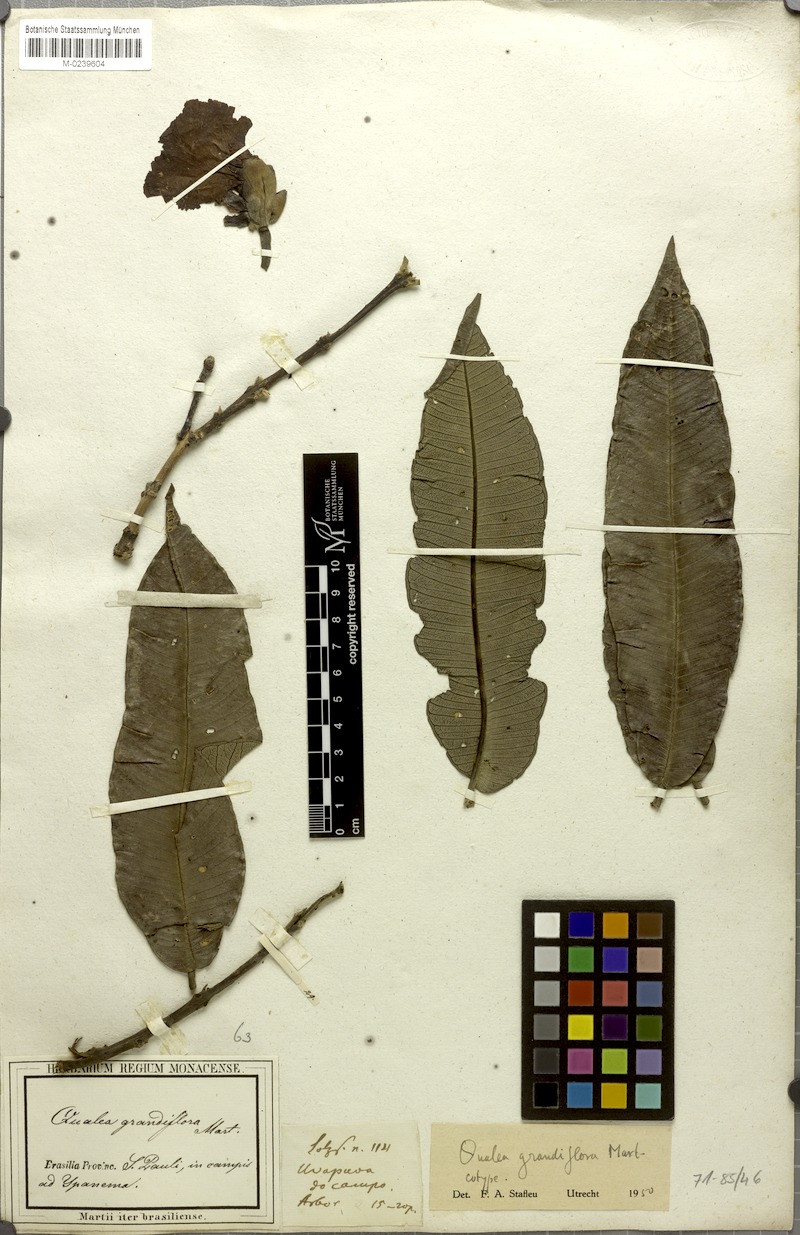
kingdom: Plantae
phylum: Tracheophyta
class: Magnoliopsida
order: Myrtales
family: Vochysiaceae
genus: Qualea
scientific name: Qualea grandiflora
